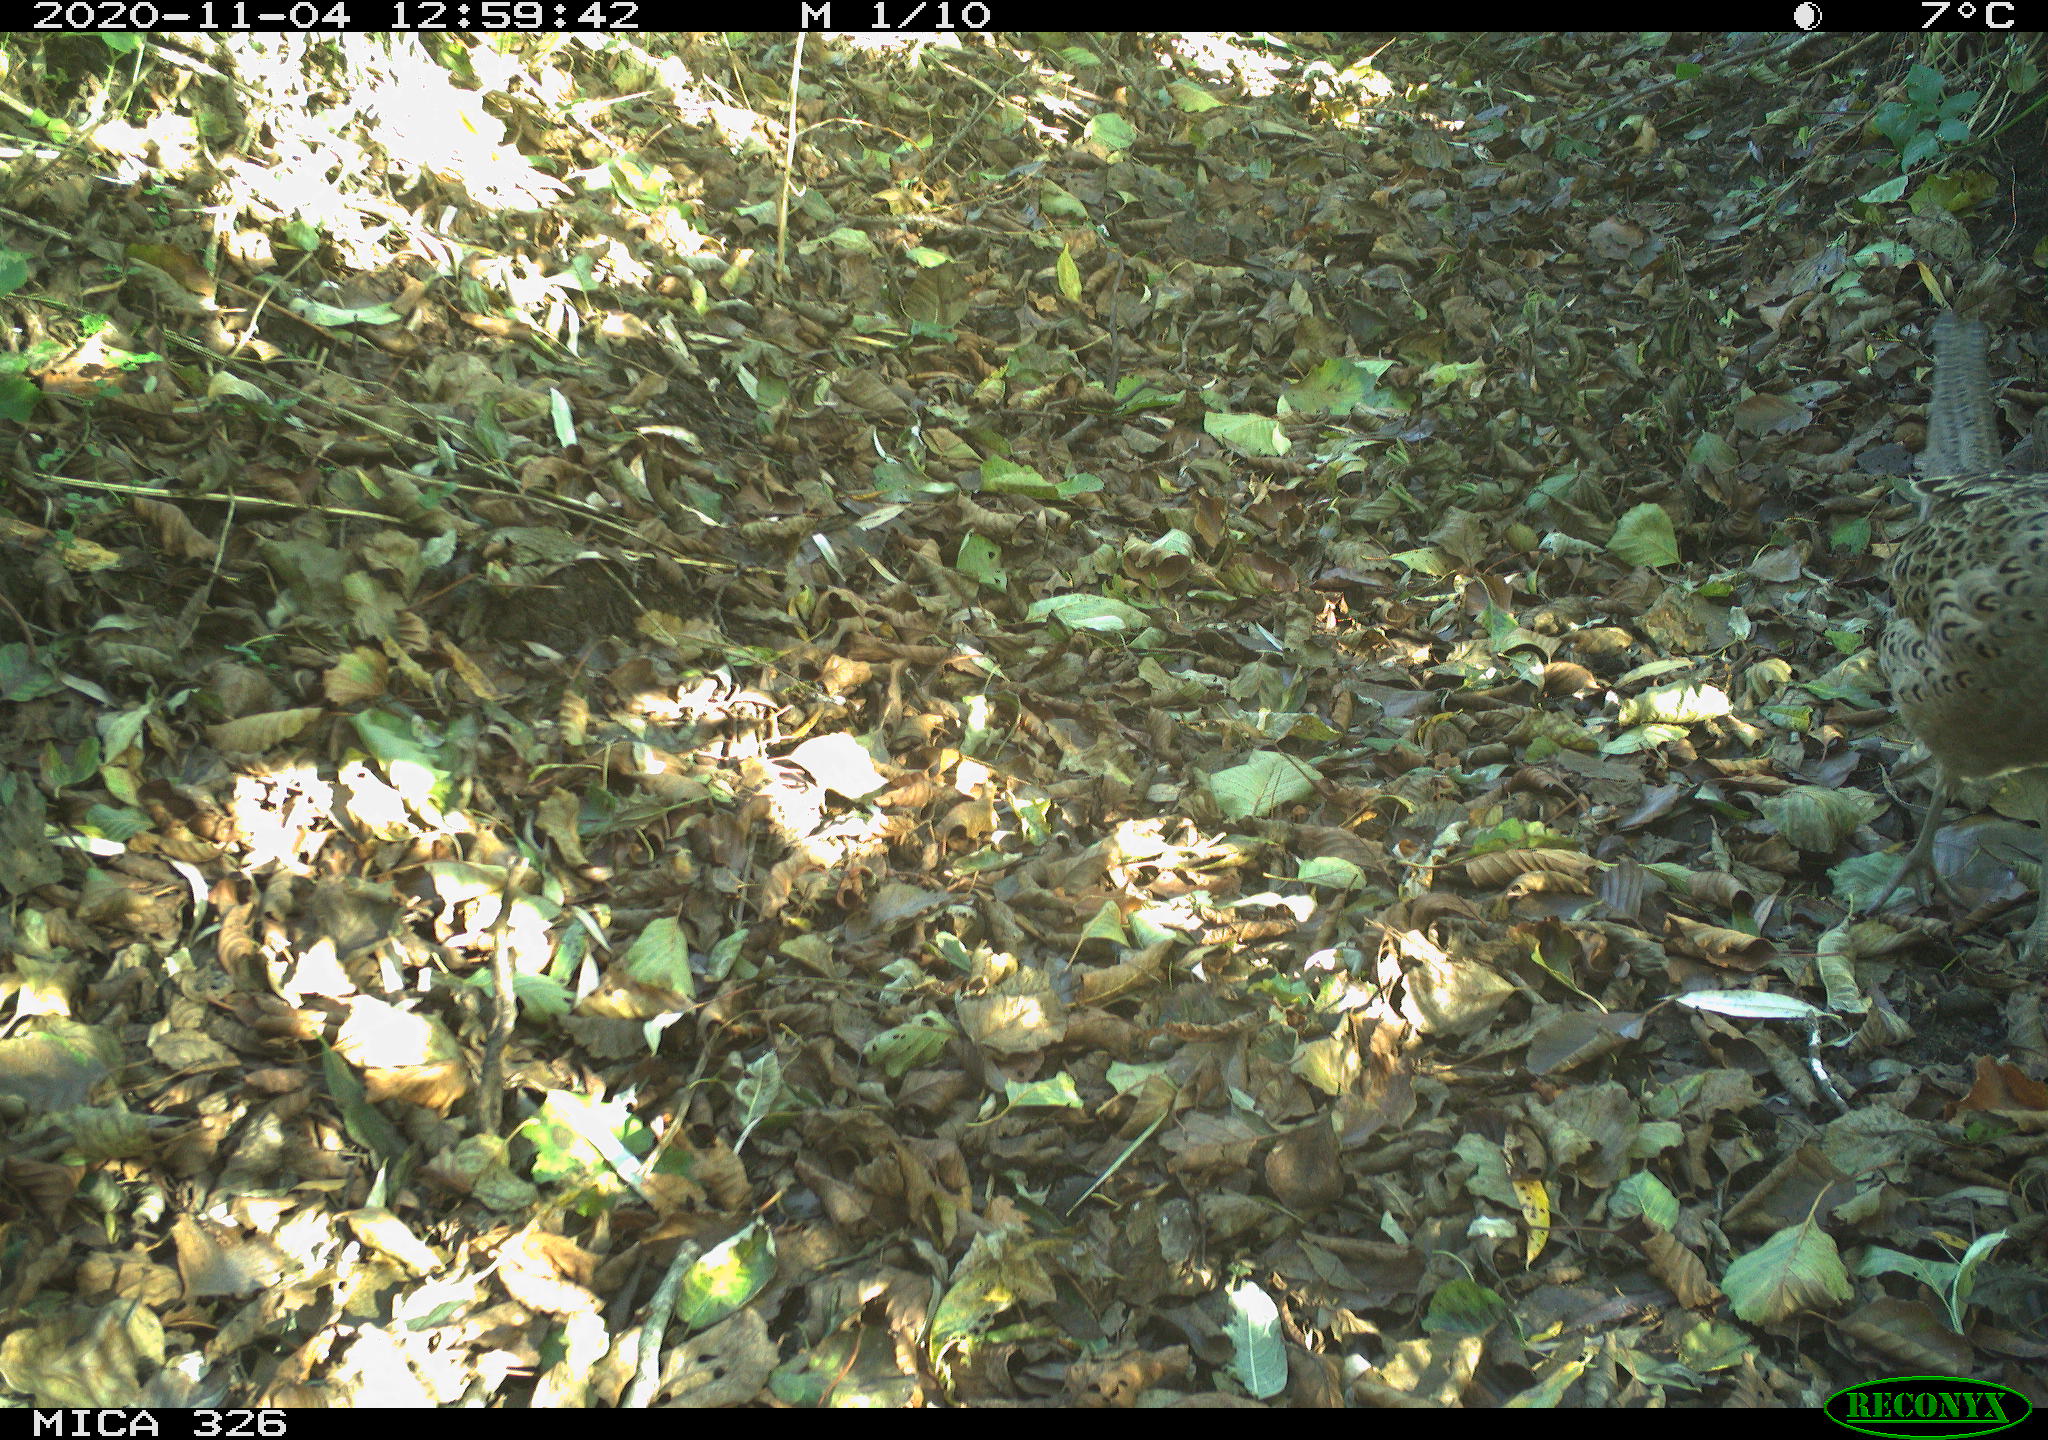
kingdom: Animalia
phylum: Chordata
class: Aves
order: Galliformes
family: Phasianidae
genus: Phasianus
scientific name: Phasianus colchicus
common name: Common pheasant
